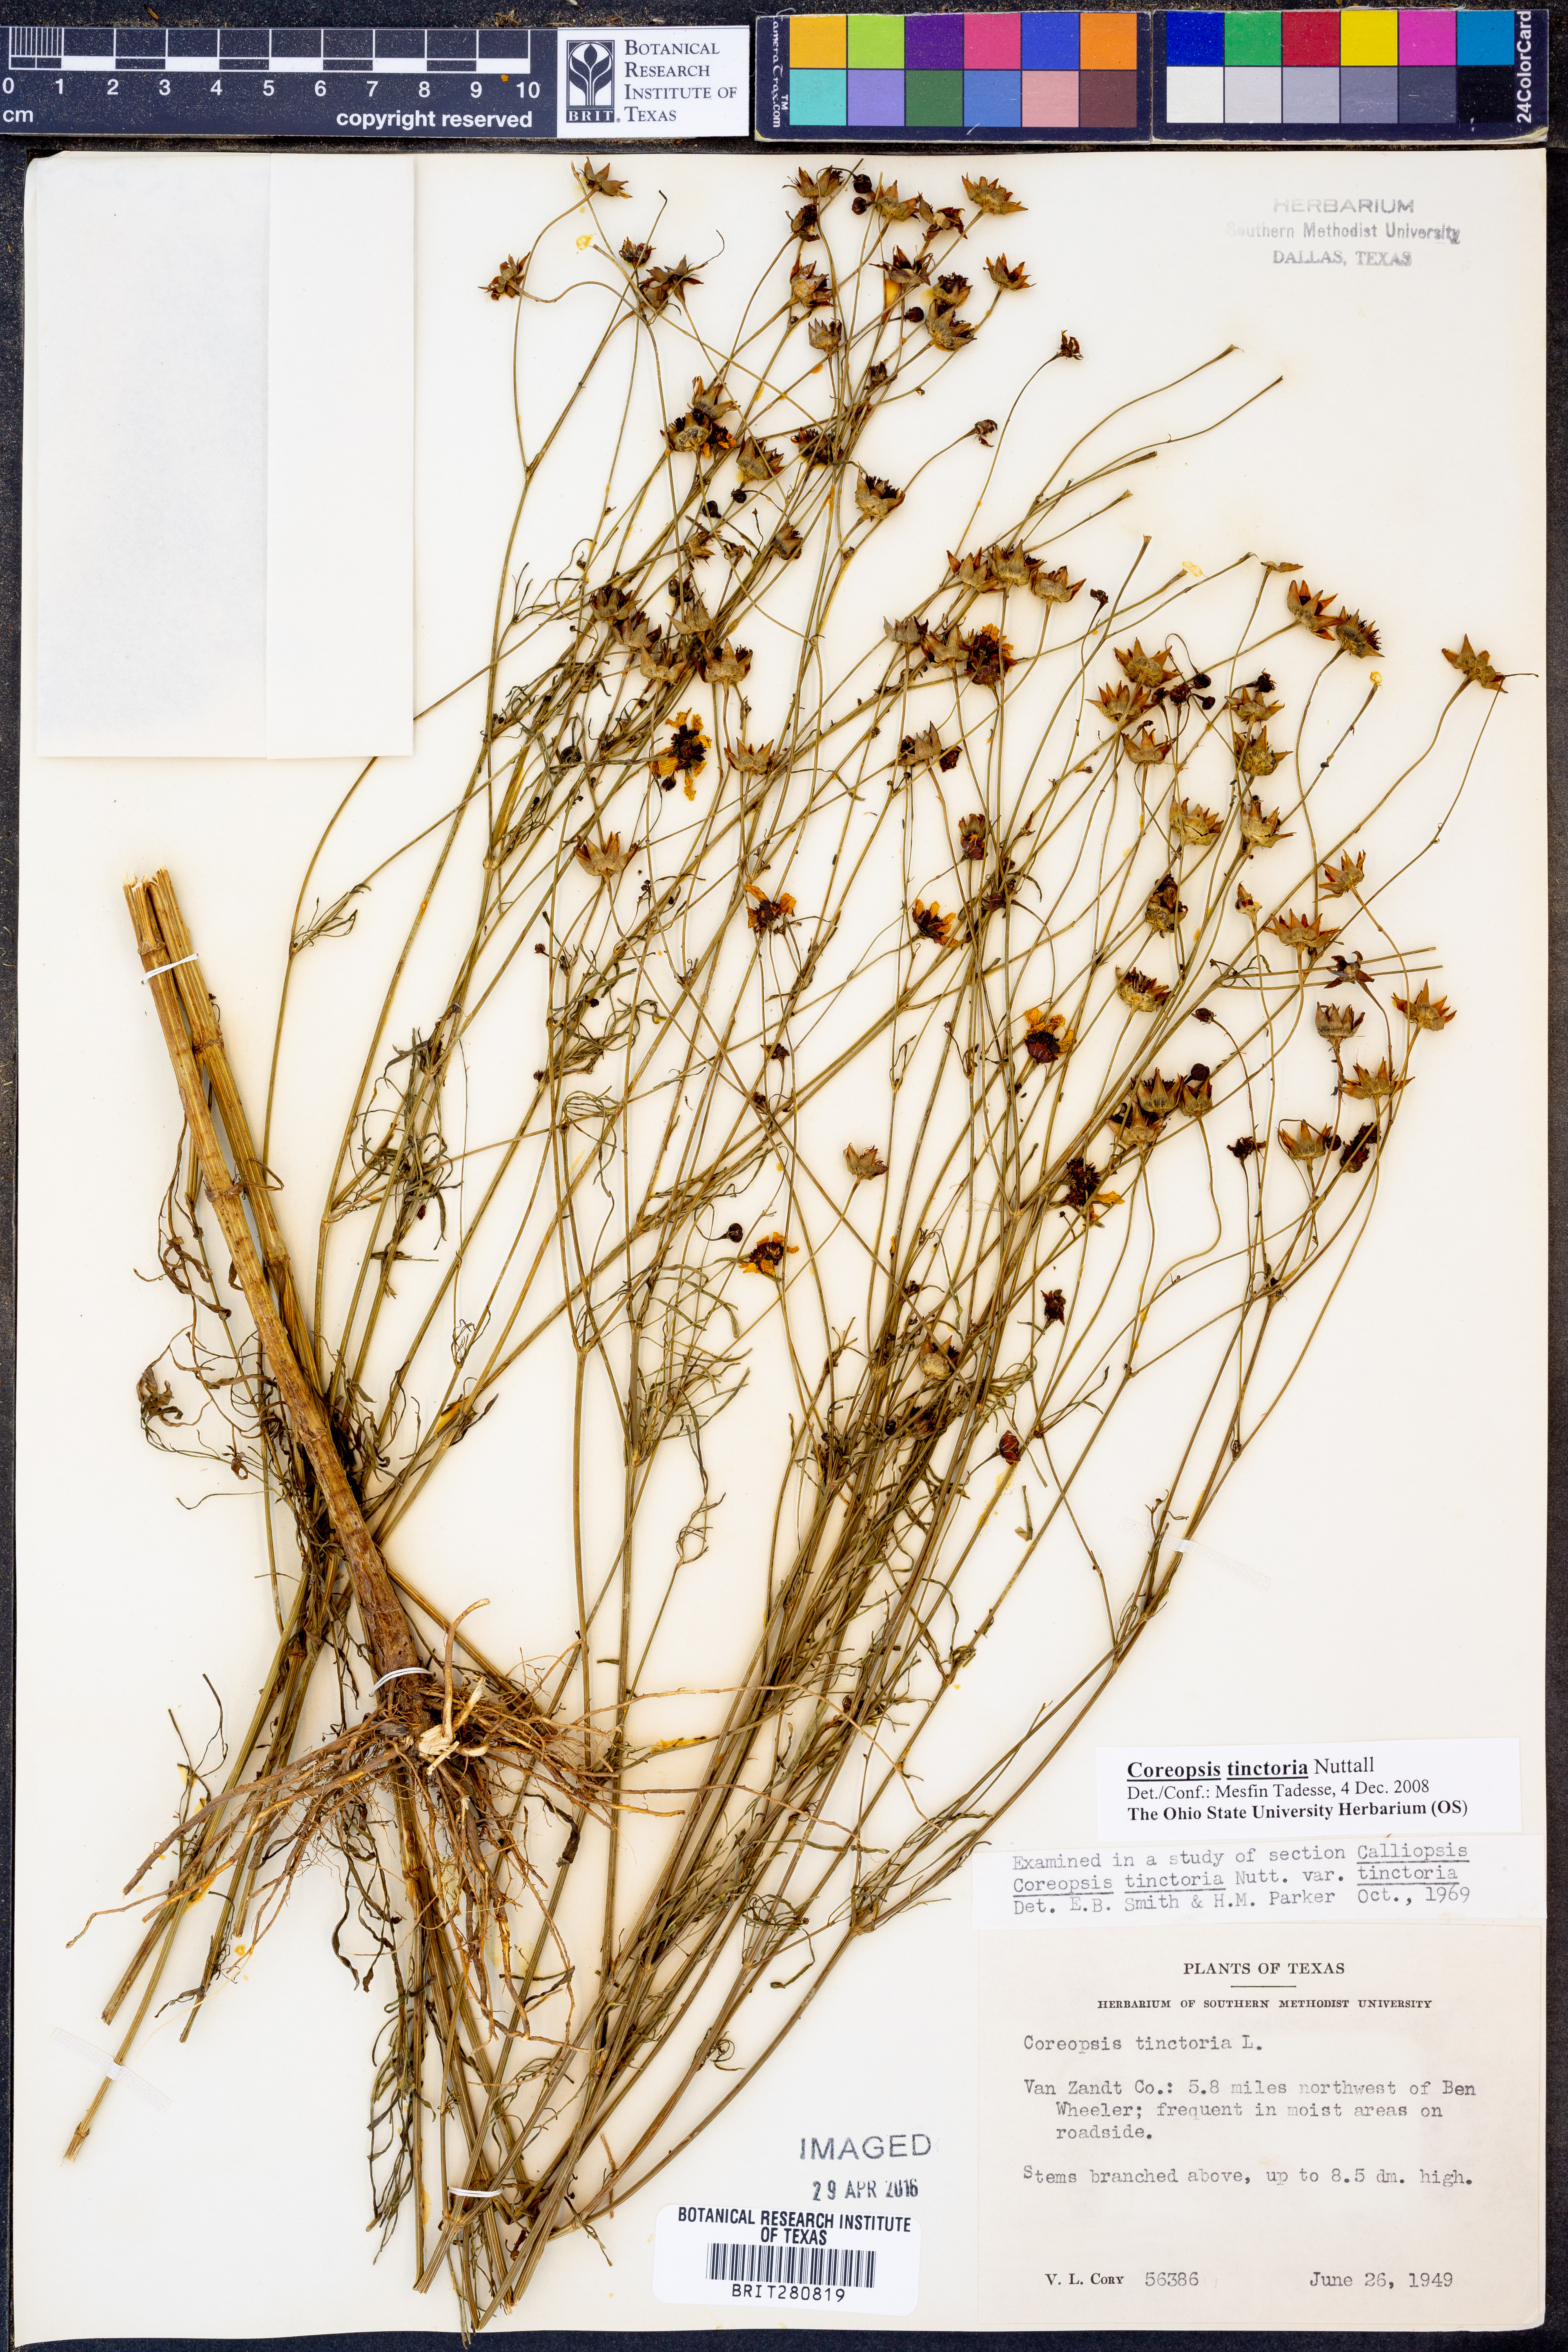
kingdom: Plantae
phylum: Tracheophyta
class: Magnoliopsida
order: Asterales
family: Asteraceae
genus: Coreopsis
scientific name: Coreopsis tinctoria
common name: Garden tickseed
